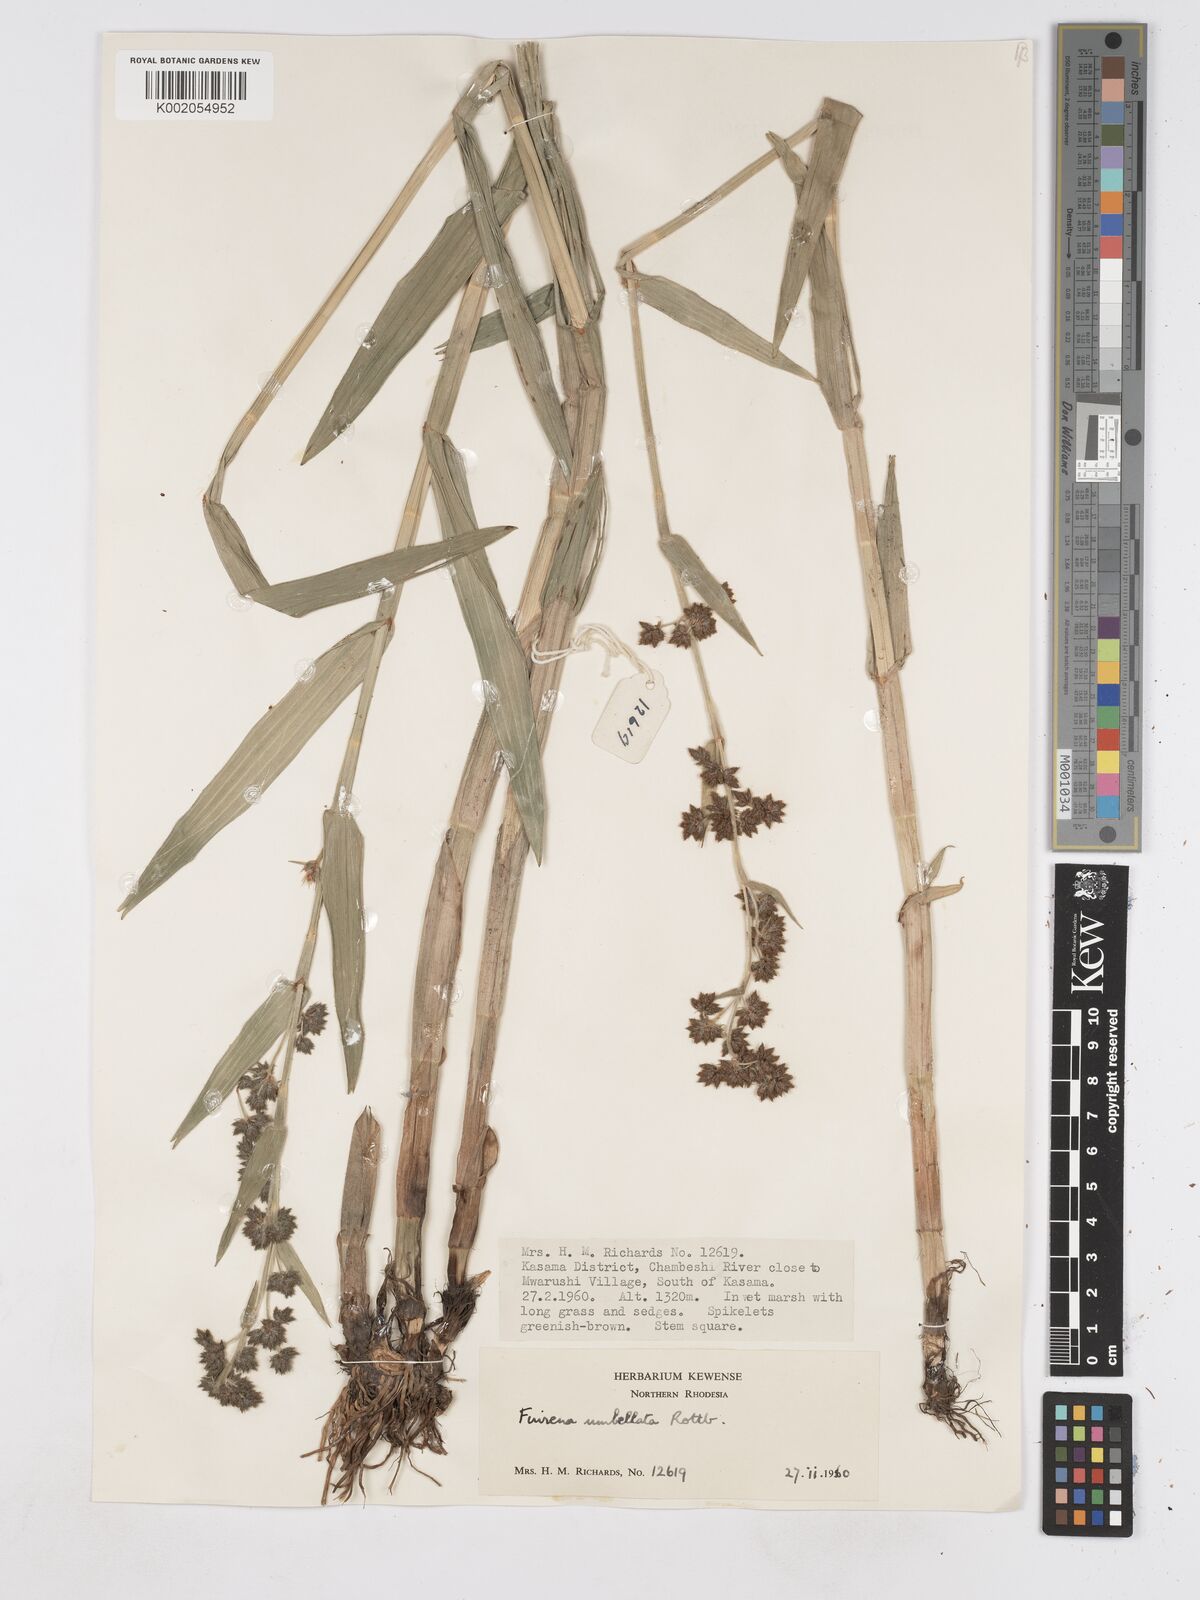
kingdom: Plantae
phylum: Tracheophyta
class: Liliopsida
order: Poales
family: Cyperaceae
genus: Fuirena
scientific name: Fuirena umbellata
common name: Yefen
